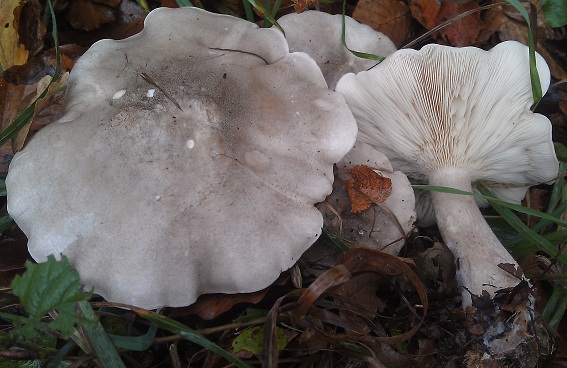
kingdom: Fungi
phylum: Basidiomycota
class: Agaricomycetes
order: Agaricales
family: Tricholomataceae
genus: Clitocybe
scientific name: Clitocybe nebularis
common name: tåge-tragthat
